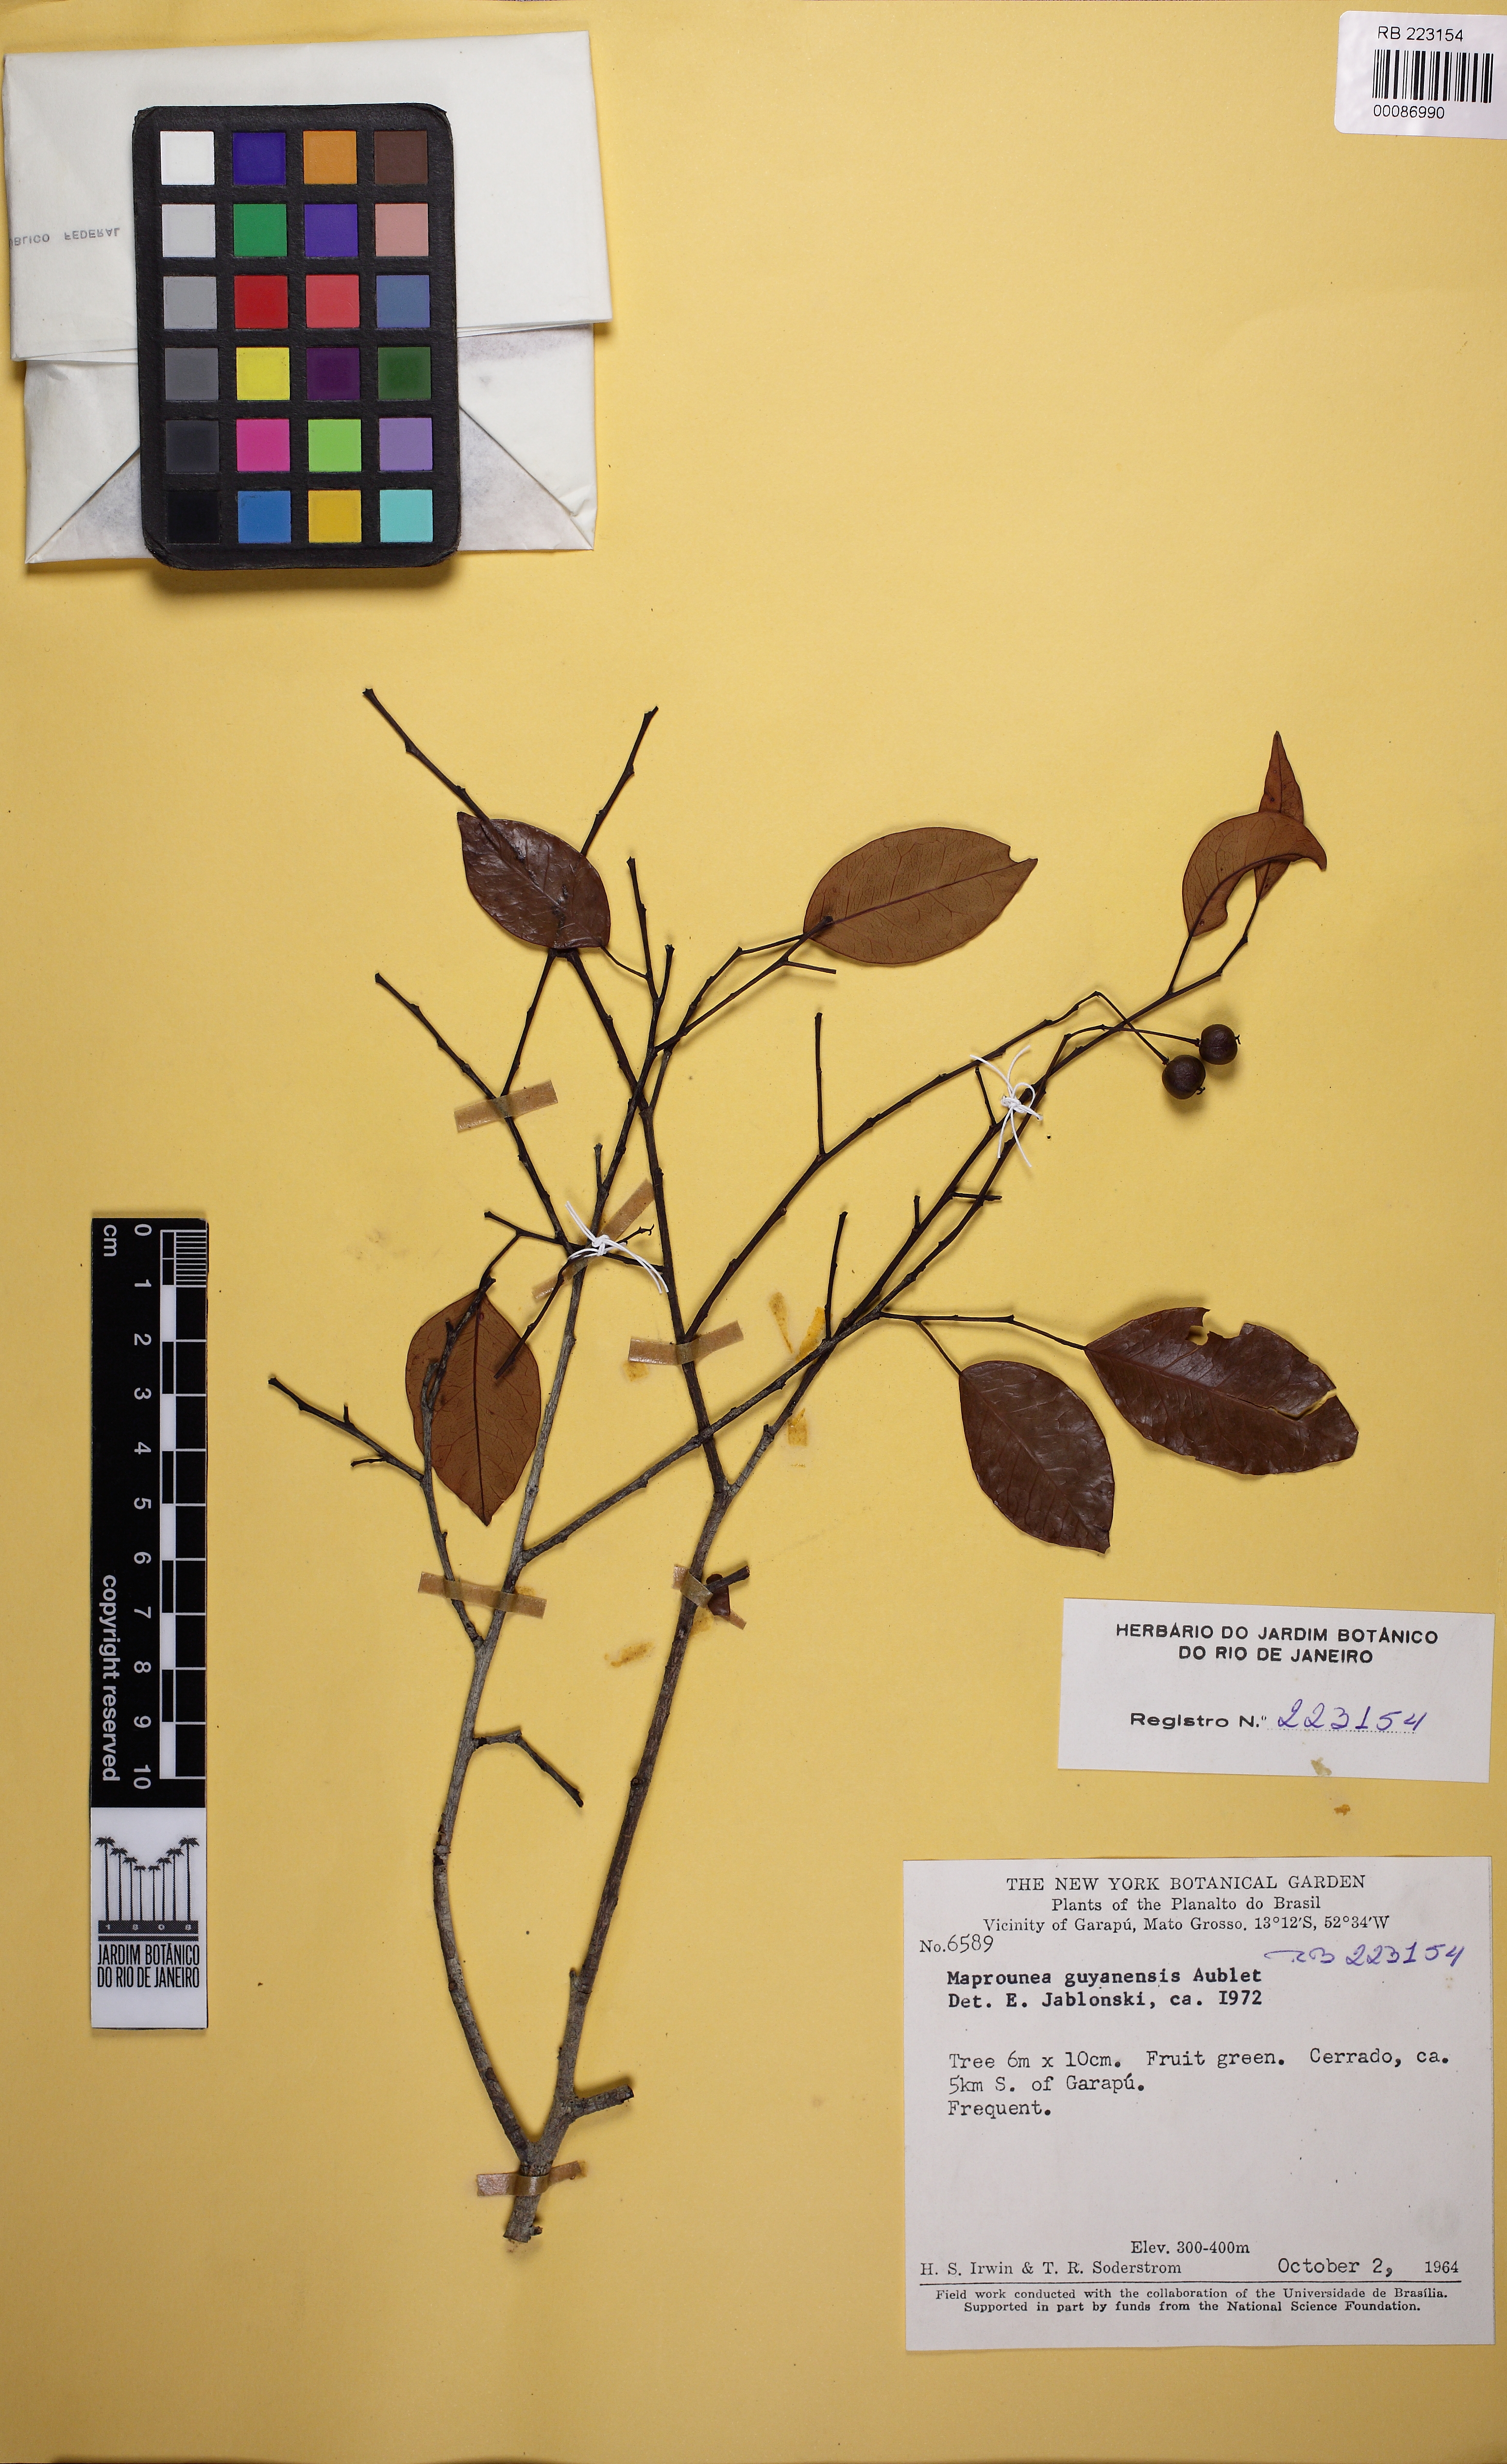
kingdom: Plantae
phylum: Tracheophyta
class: Magnoliopsida
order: Malpighiales
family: Euphorbiaceae
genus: Maprounea
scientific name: Maprounea africana
